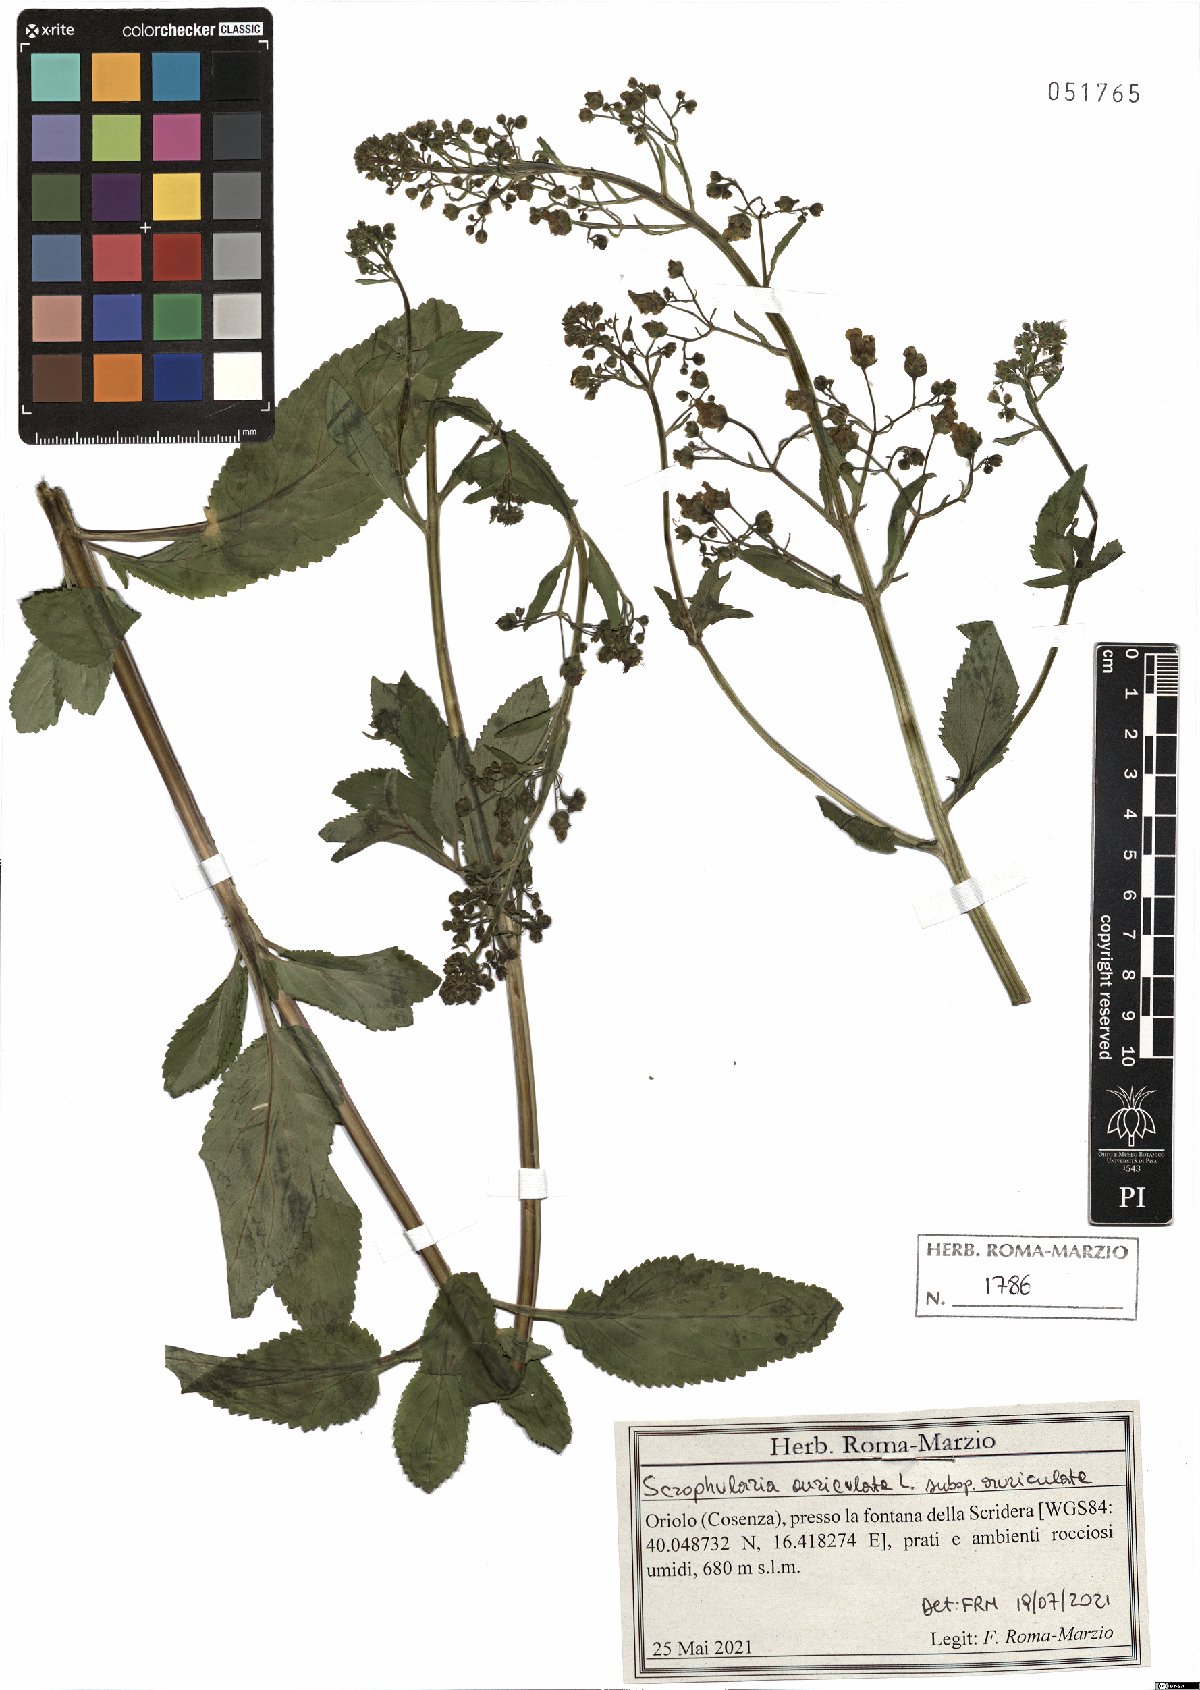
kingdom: Plantae
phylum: Tracheophyta
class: Magnoliopsida
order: Lamiales
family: Scrophulariaceae
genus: Scrophularia
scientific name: Scrophularia auriculata
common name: Water betony
